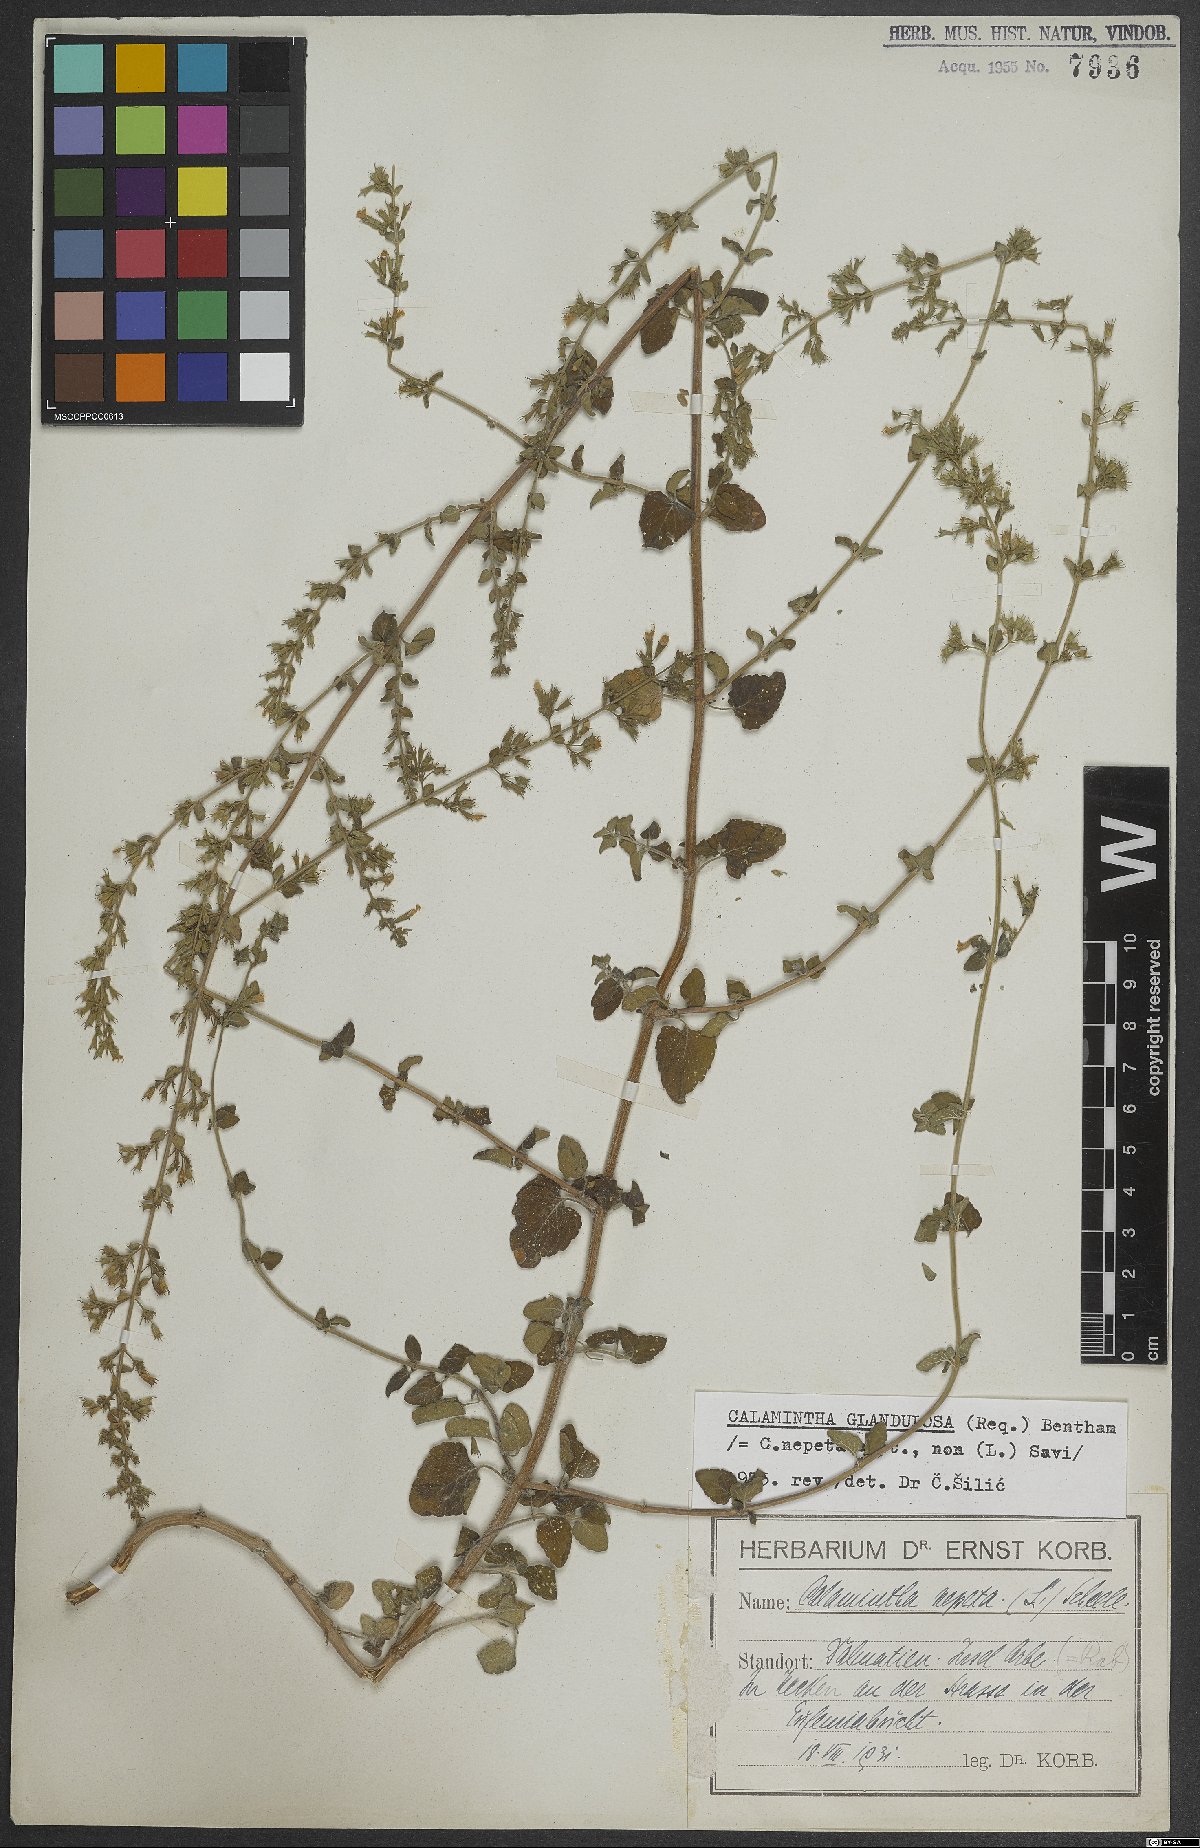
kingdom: Plantae
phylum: Tracheophyta
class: Magnoliopsida
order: Lamiales
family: Lamiaceae
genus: Clinopodium
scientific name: Clinopodium nepeta
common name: Lesser calamint
